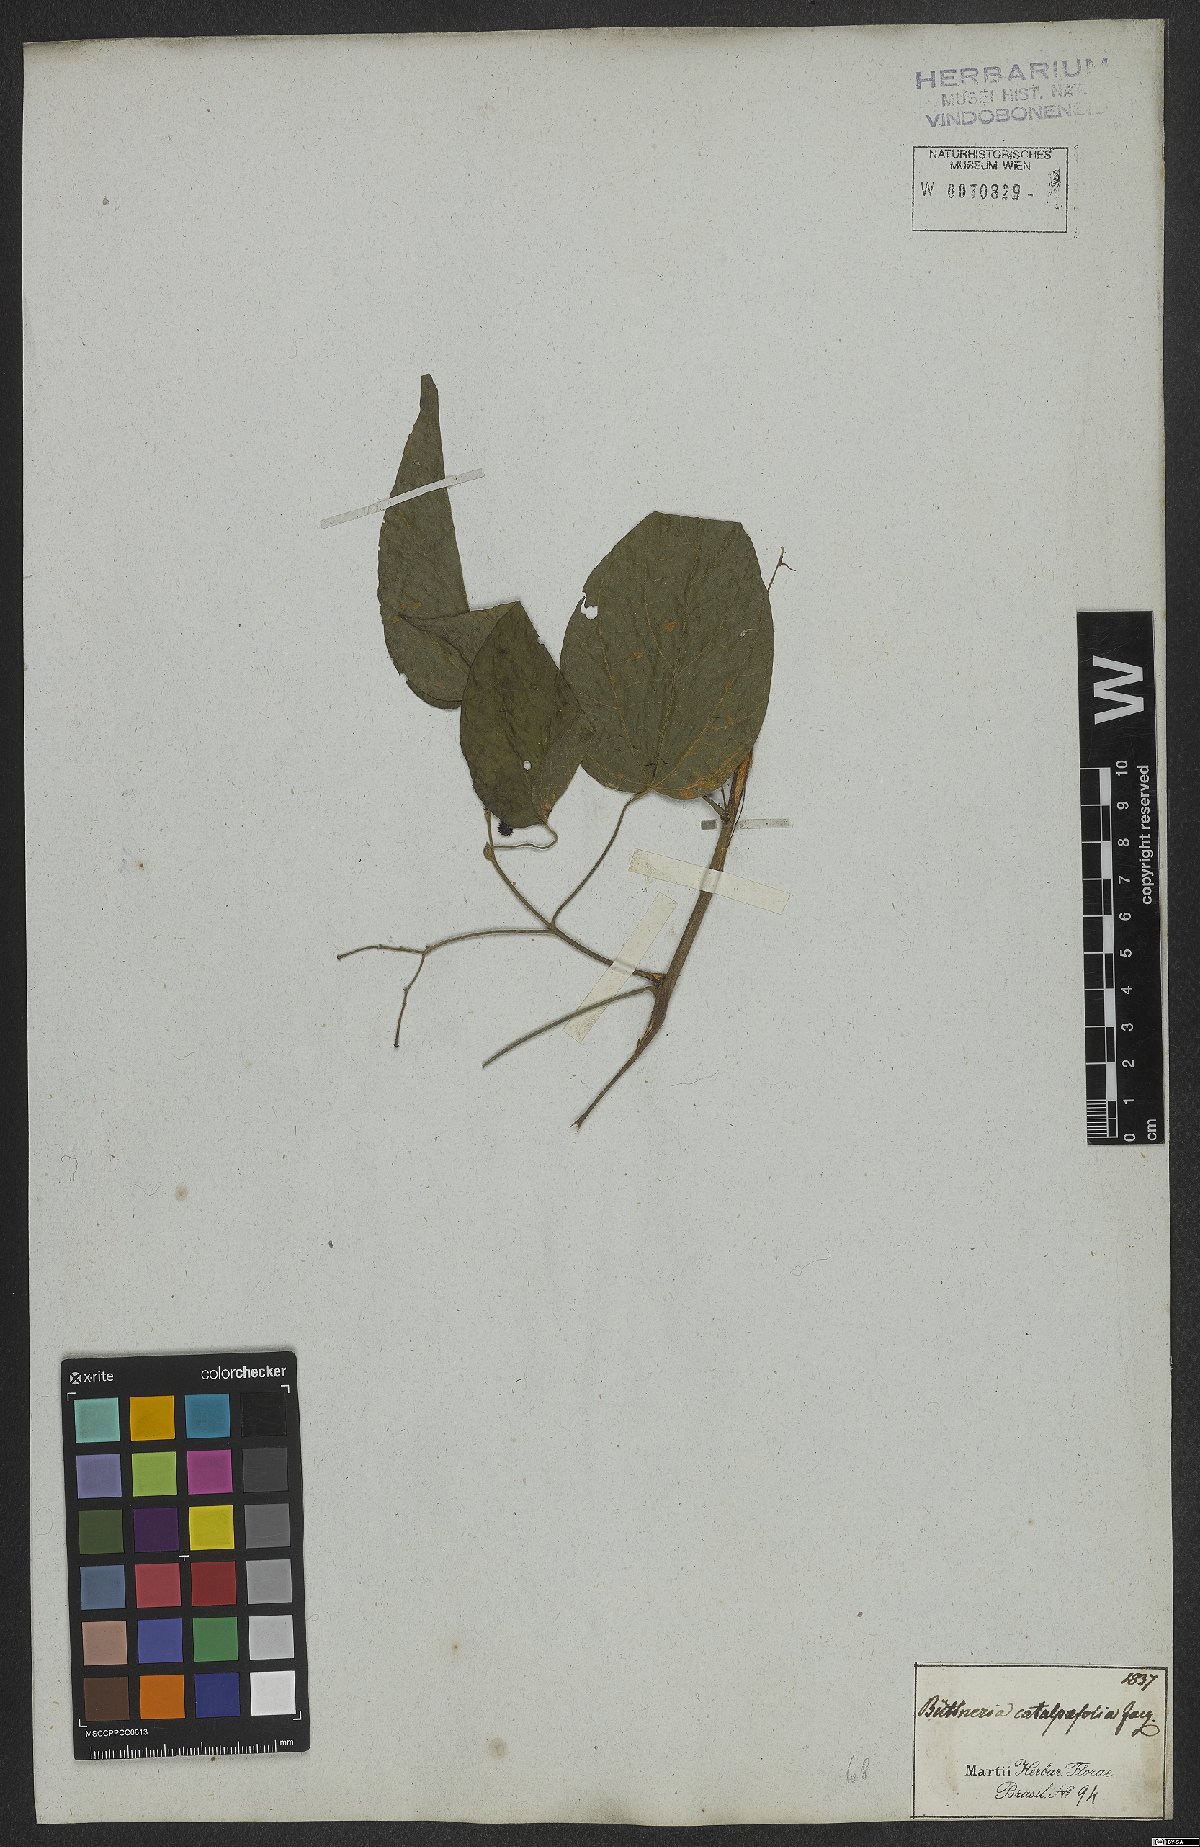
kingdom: Plantae
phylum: Tracheophyta
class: Magnoliopsida
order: Malvales
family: Malvaceae
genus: Byttneria
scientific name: Byttneria catalpifolia
